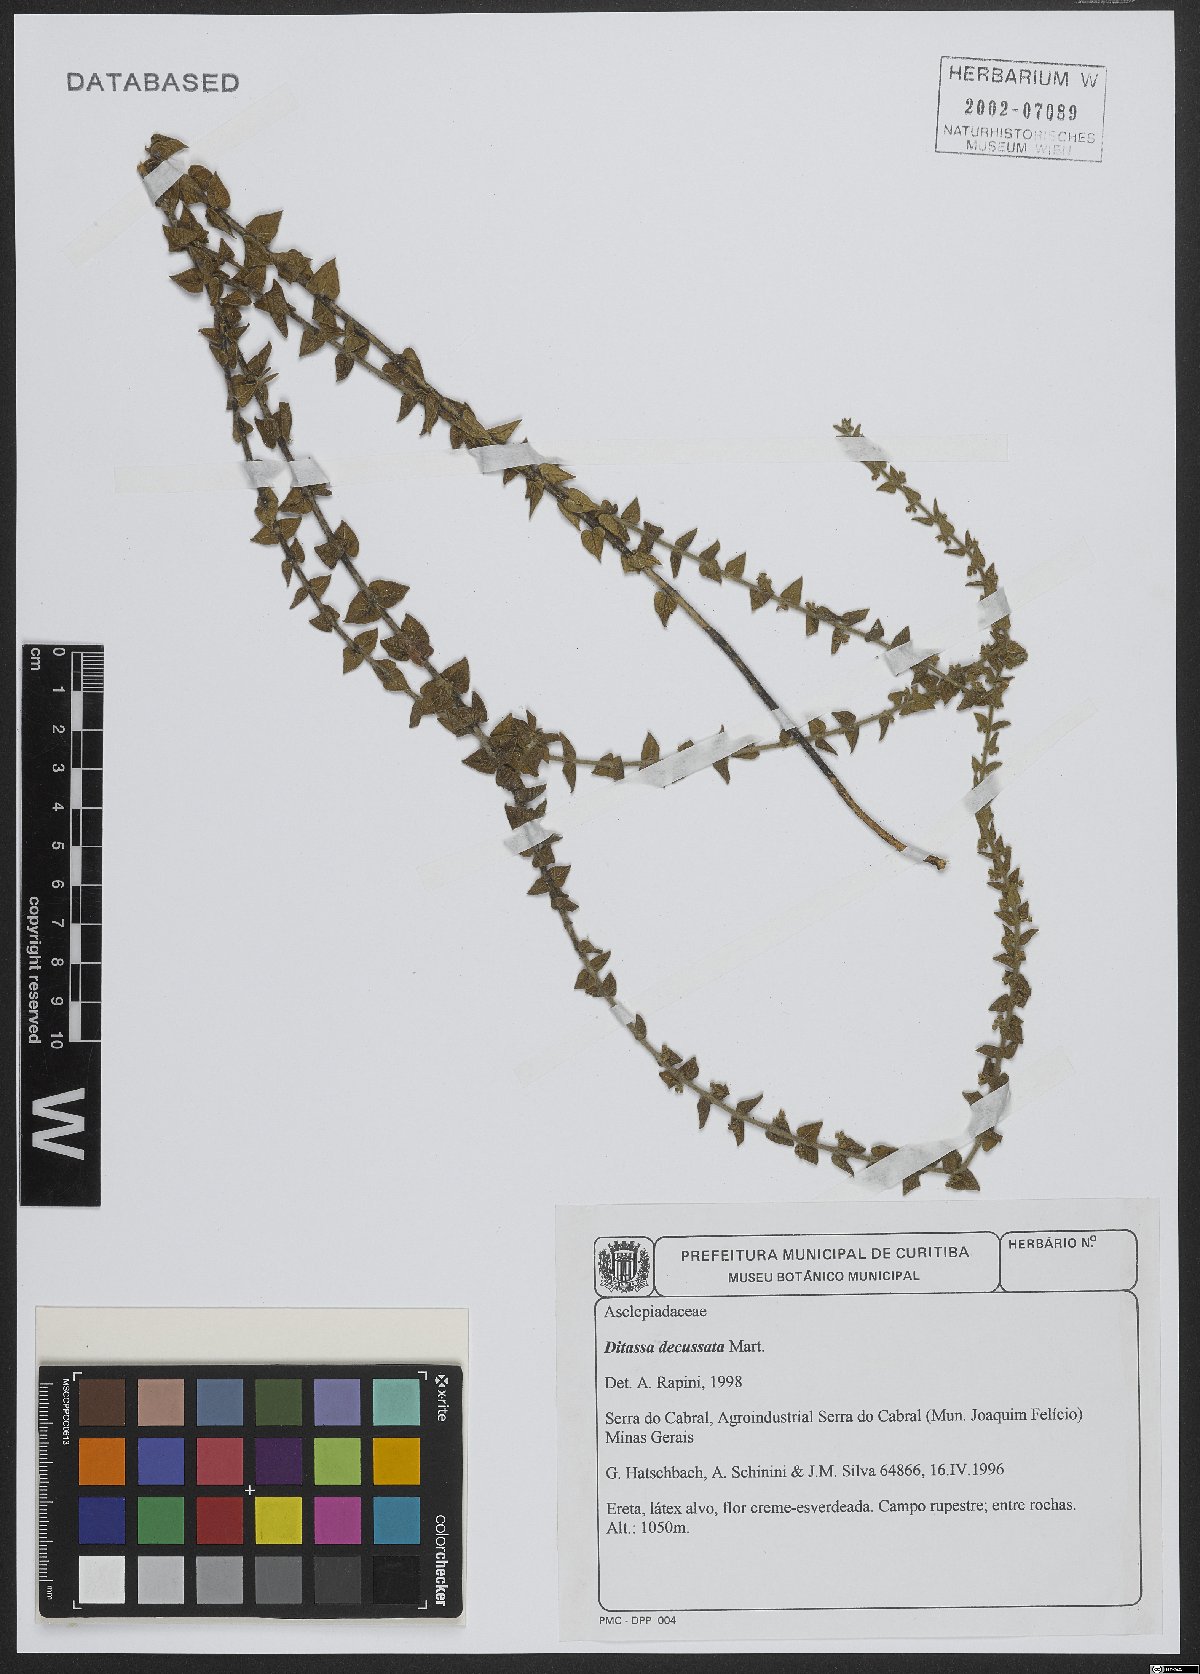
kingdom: Plantae
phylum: Tracheophyta
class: Magnoliopsida
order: Gentianales
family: Apocynaceae
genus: Minaria
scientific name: Minaria decussata
